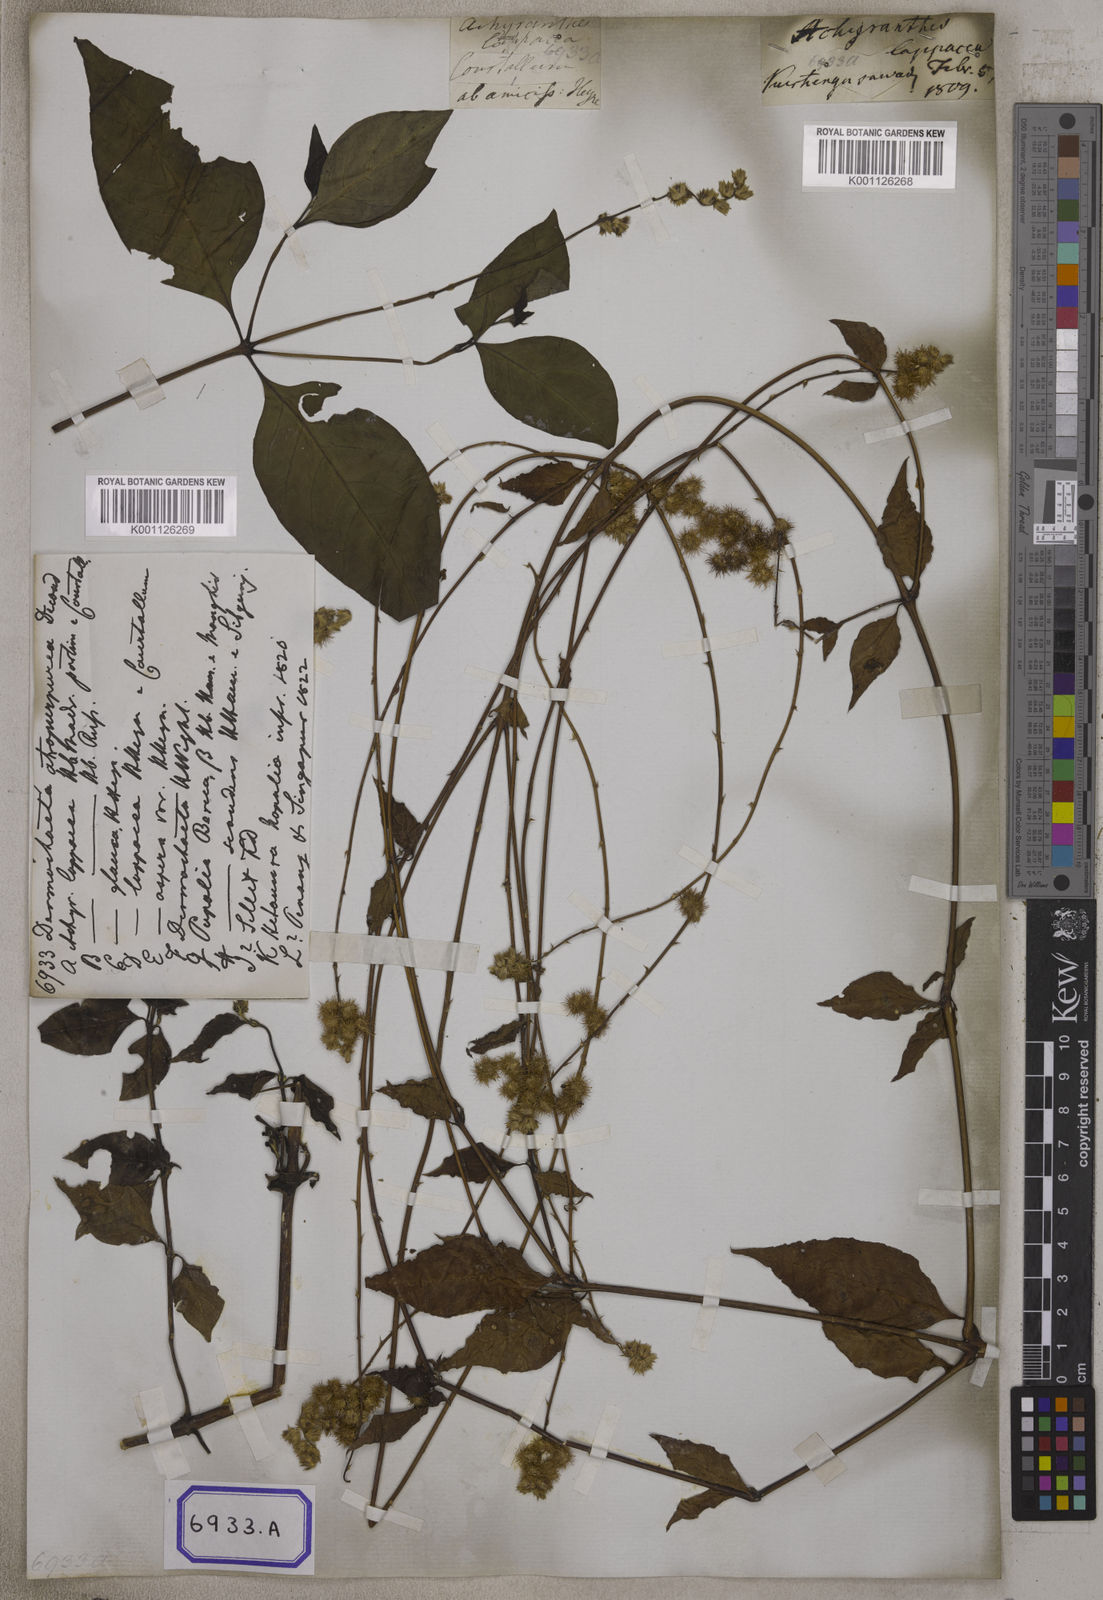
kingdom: Plantae
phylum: Tracheophyta
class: Magnoliopsida
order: Caryophyllales
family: Amaranthaceae
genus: Pupalia
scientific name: Pupalia lappacea
